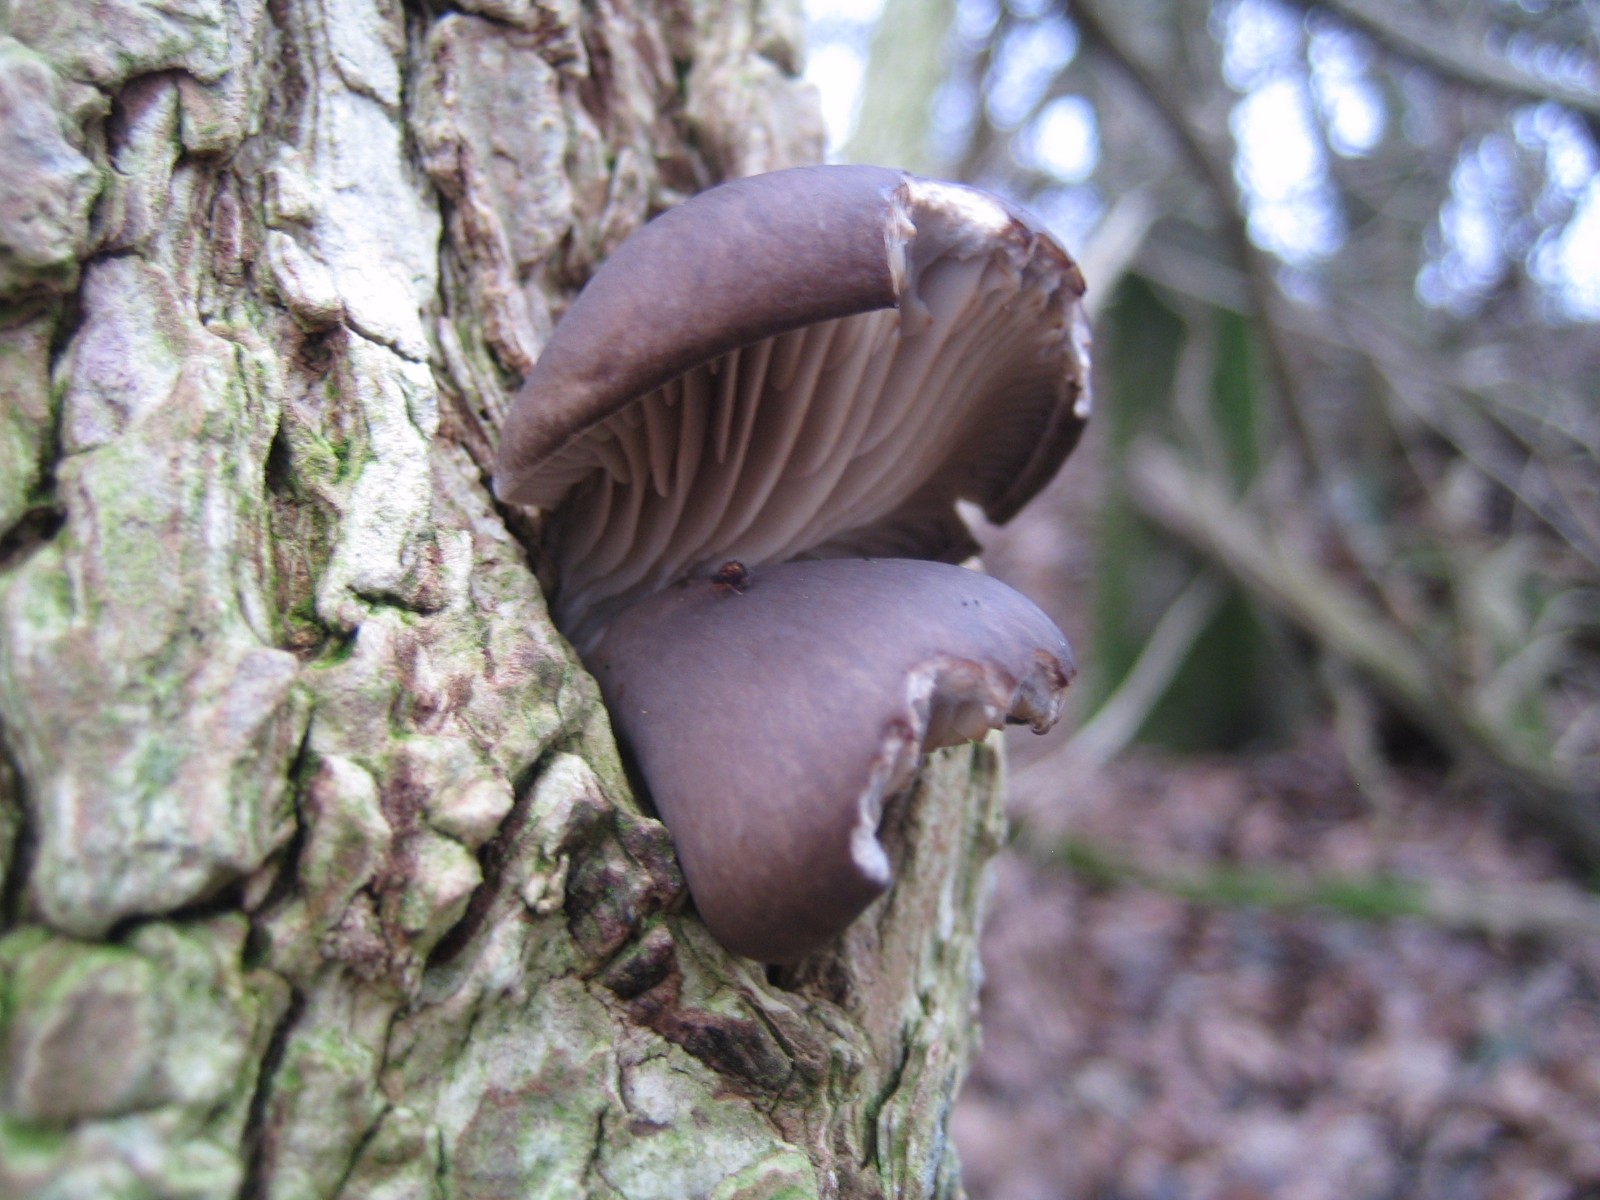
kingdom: Fungi
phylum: Basidiomycota
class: Agaricomycetes
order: Agaricales
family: Pleurotaceae
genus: Pleurotus
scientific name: Pleurotus ostreatus
